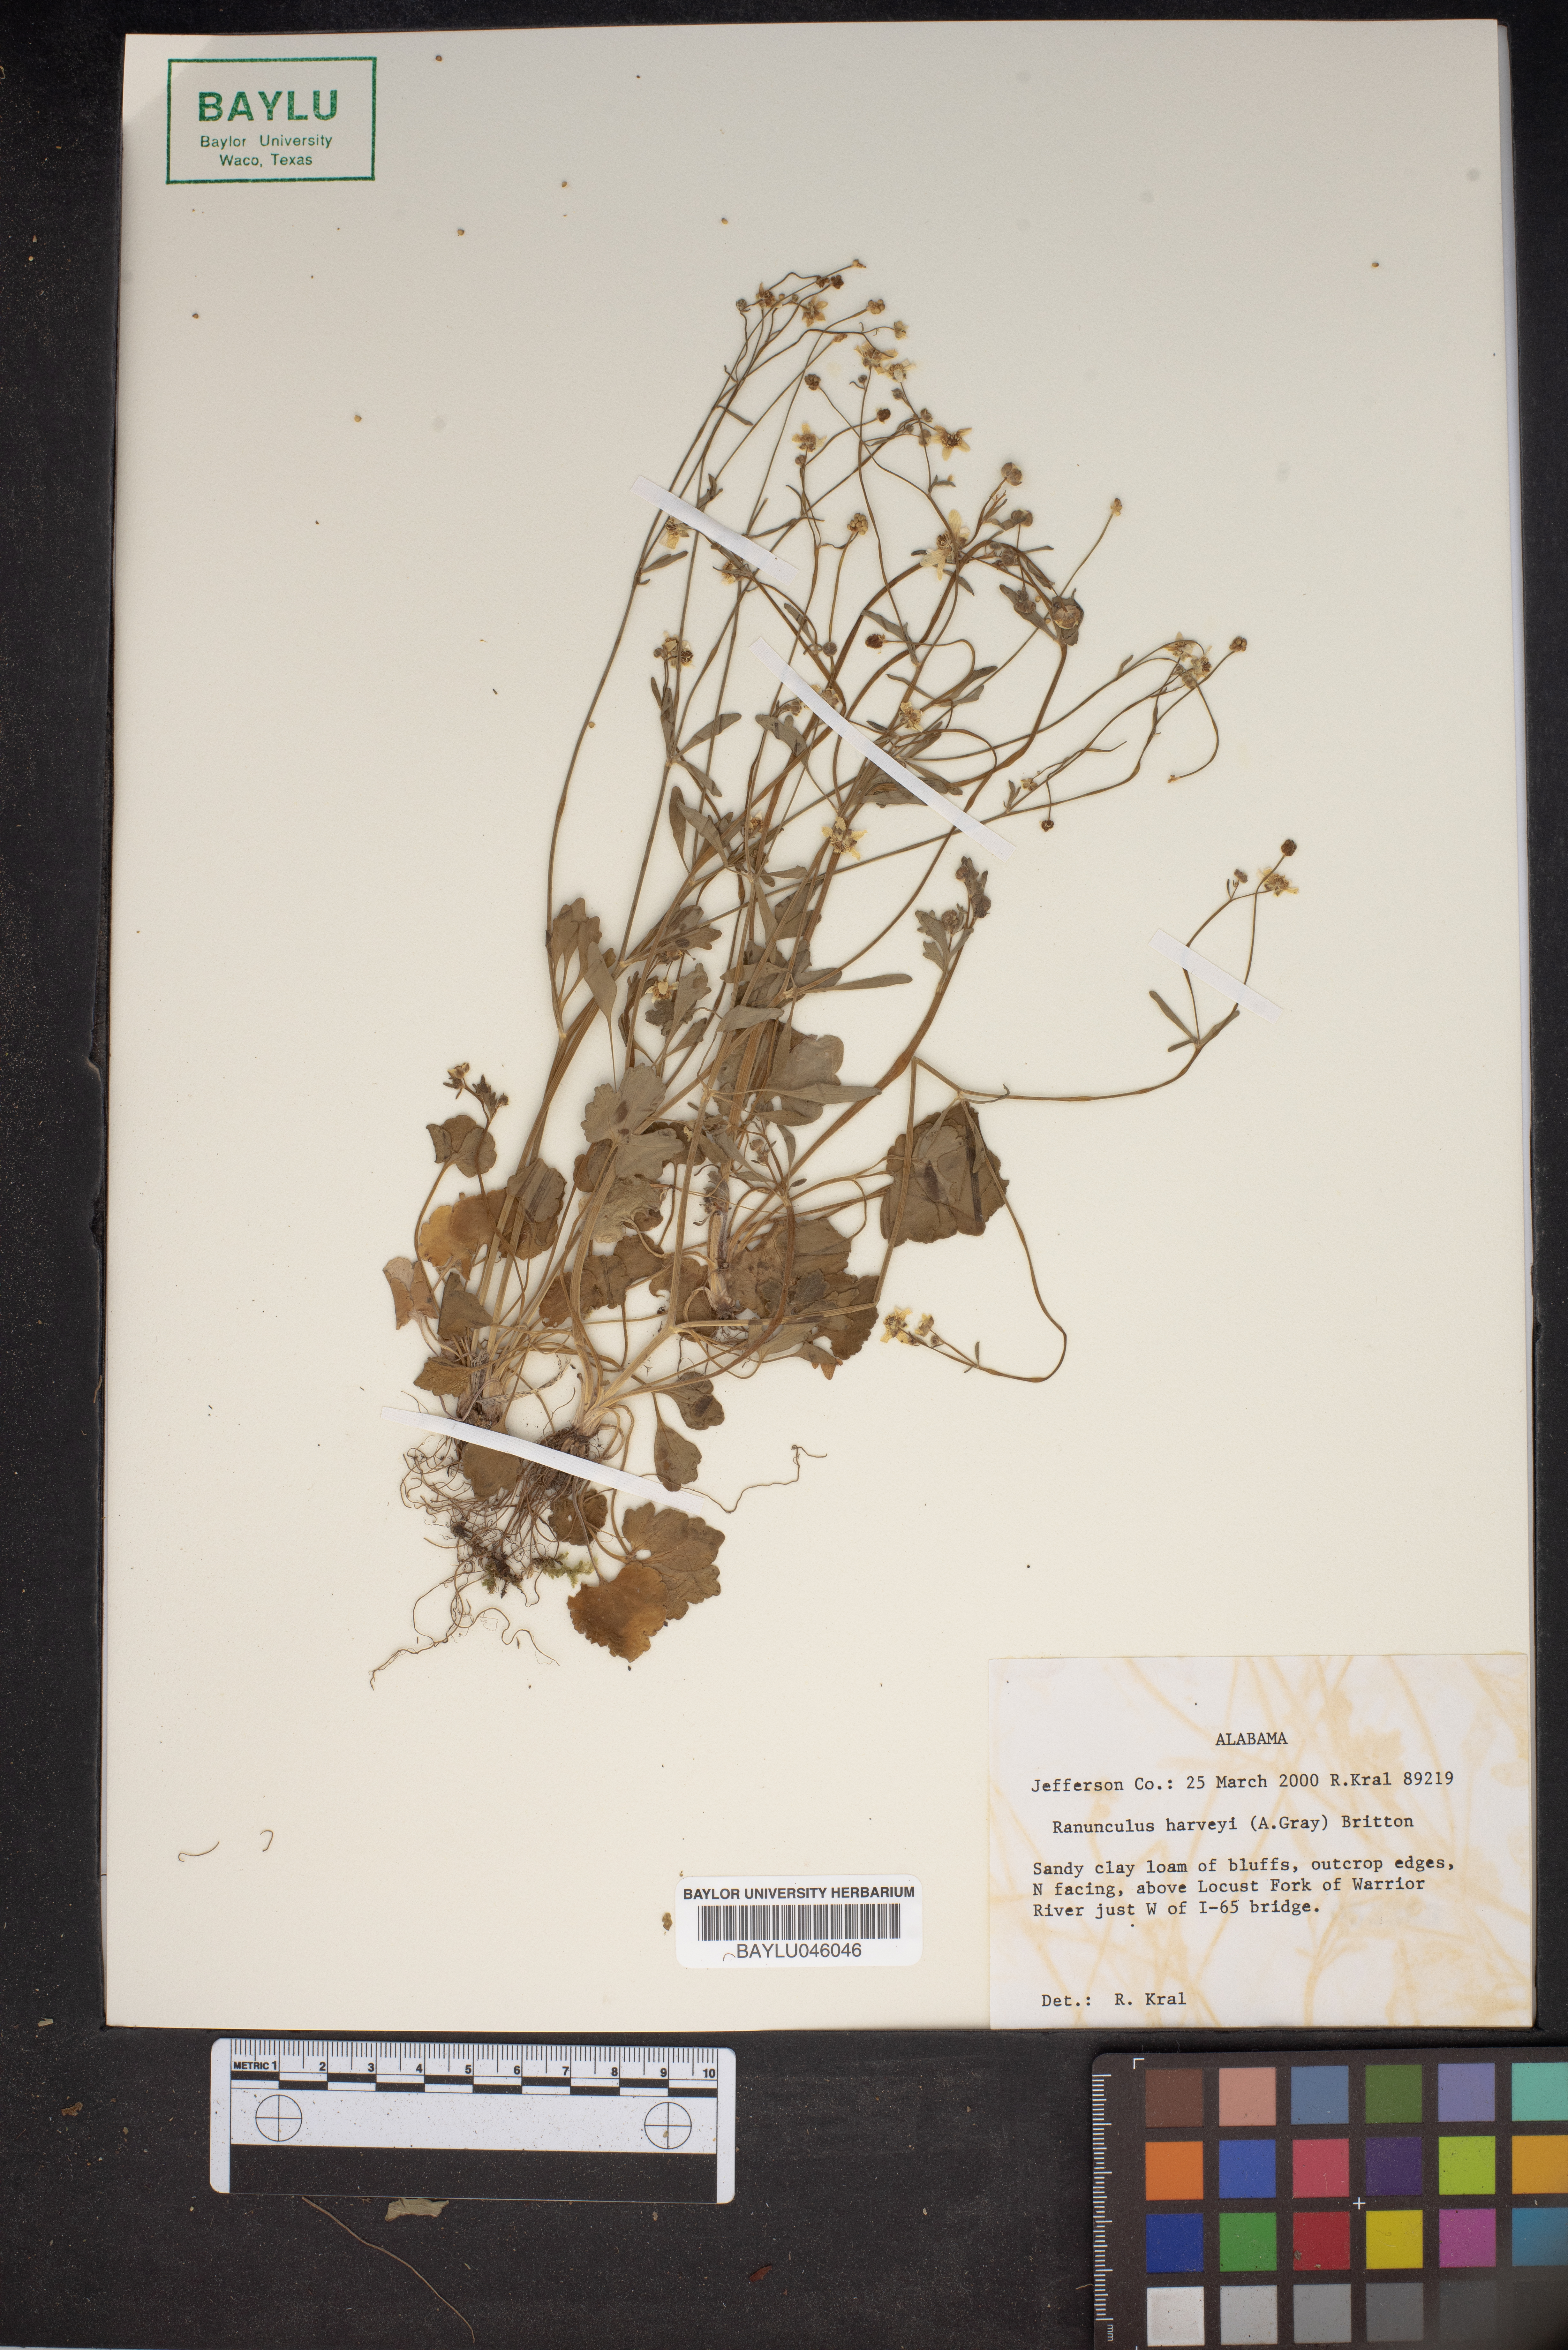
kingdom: Plantae
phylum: Tracheophyta
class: Magnoliopsida
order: Ranunculales
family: Ranunculaceae
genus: Ranunculus
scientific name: Ranunculus harveyi
